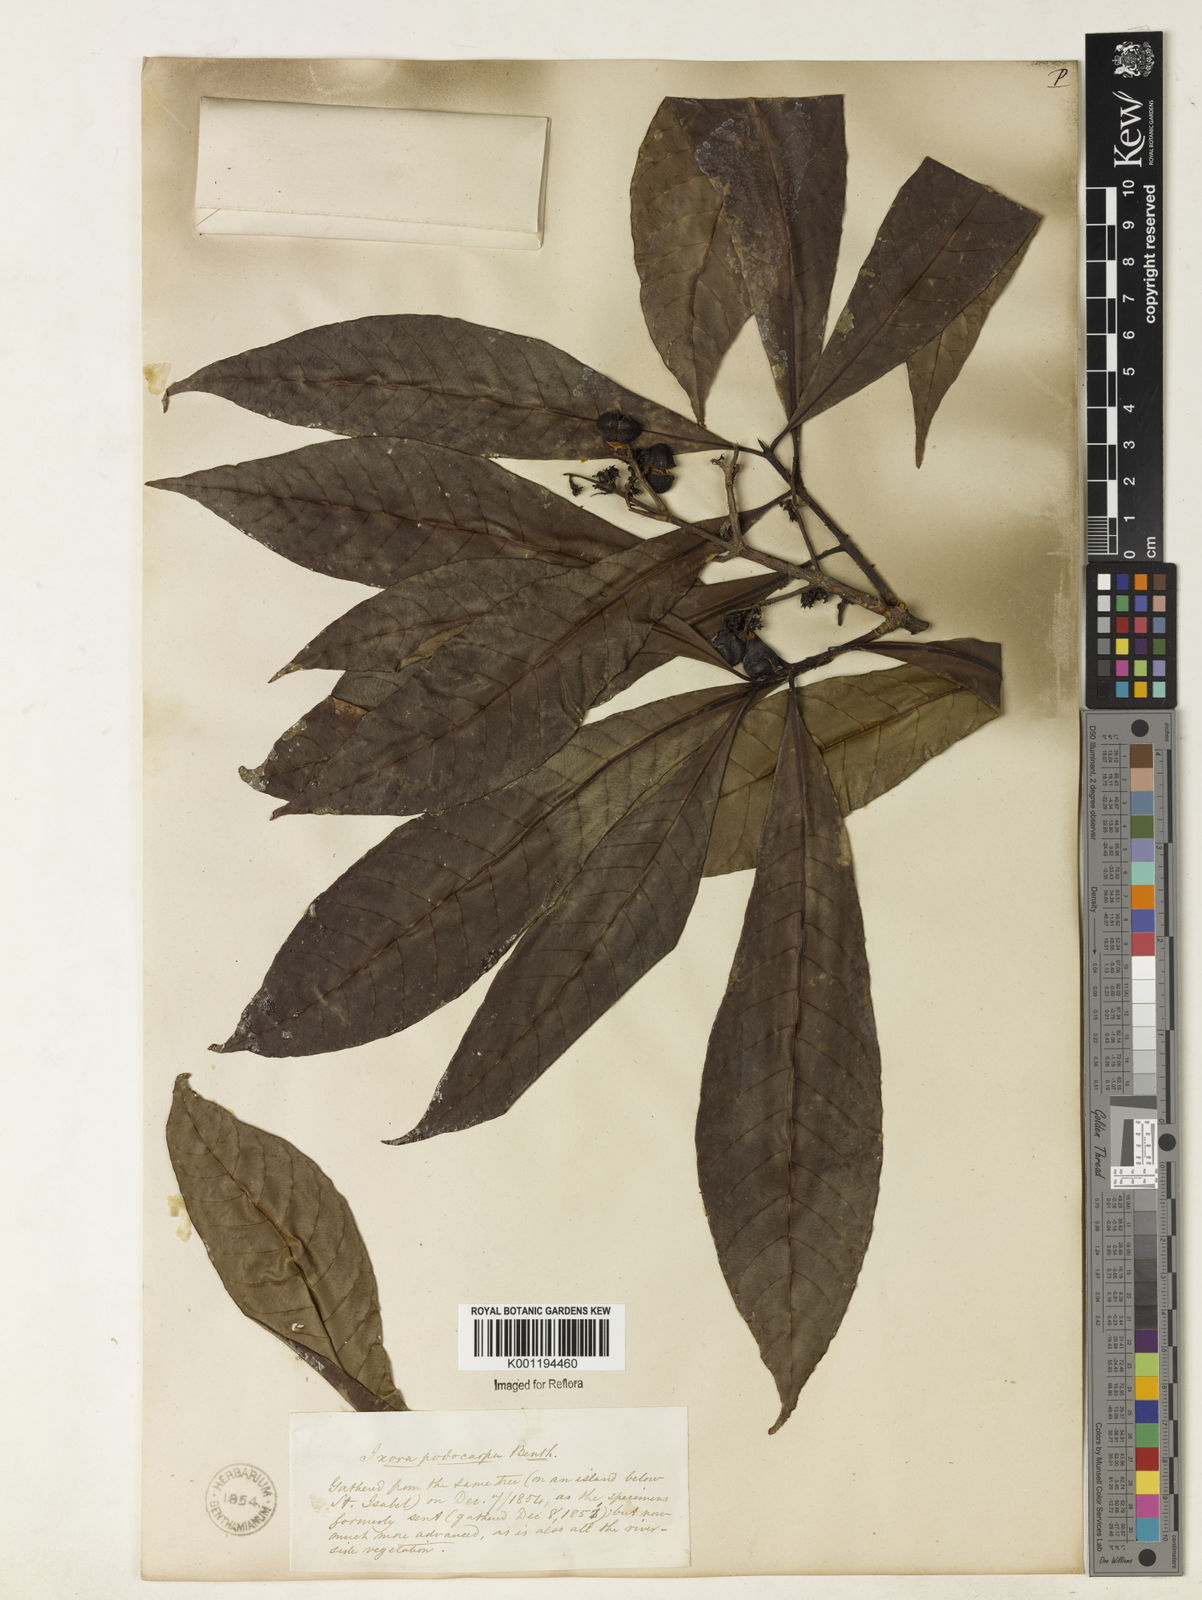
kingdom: Plantae
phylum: Tracheophyta
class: Magnoliopsida
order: Gentianales
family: Rubiaceae
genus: Simira
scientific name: Simira podocarpa
